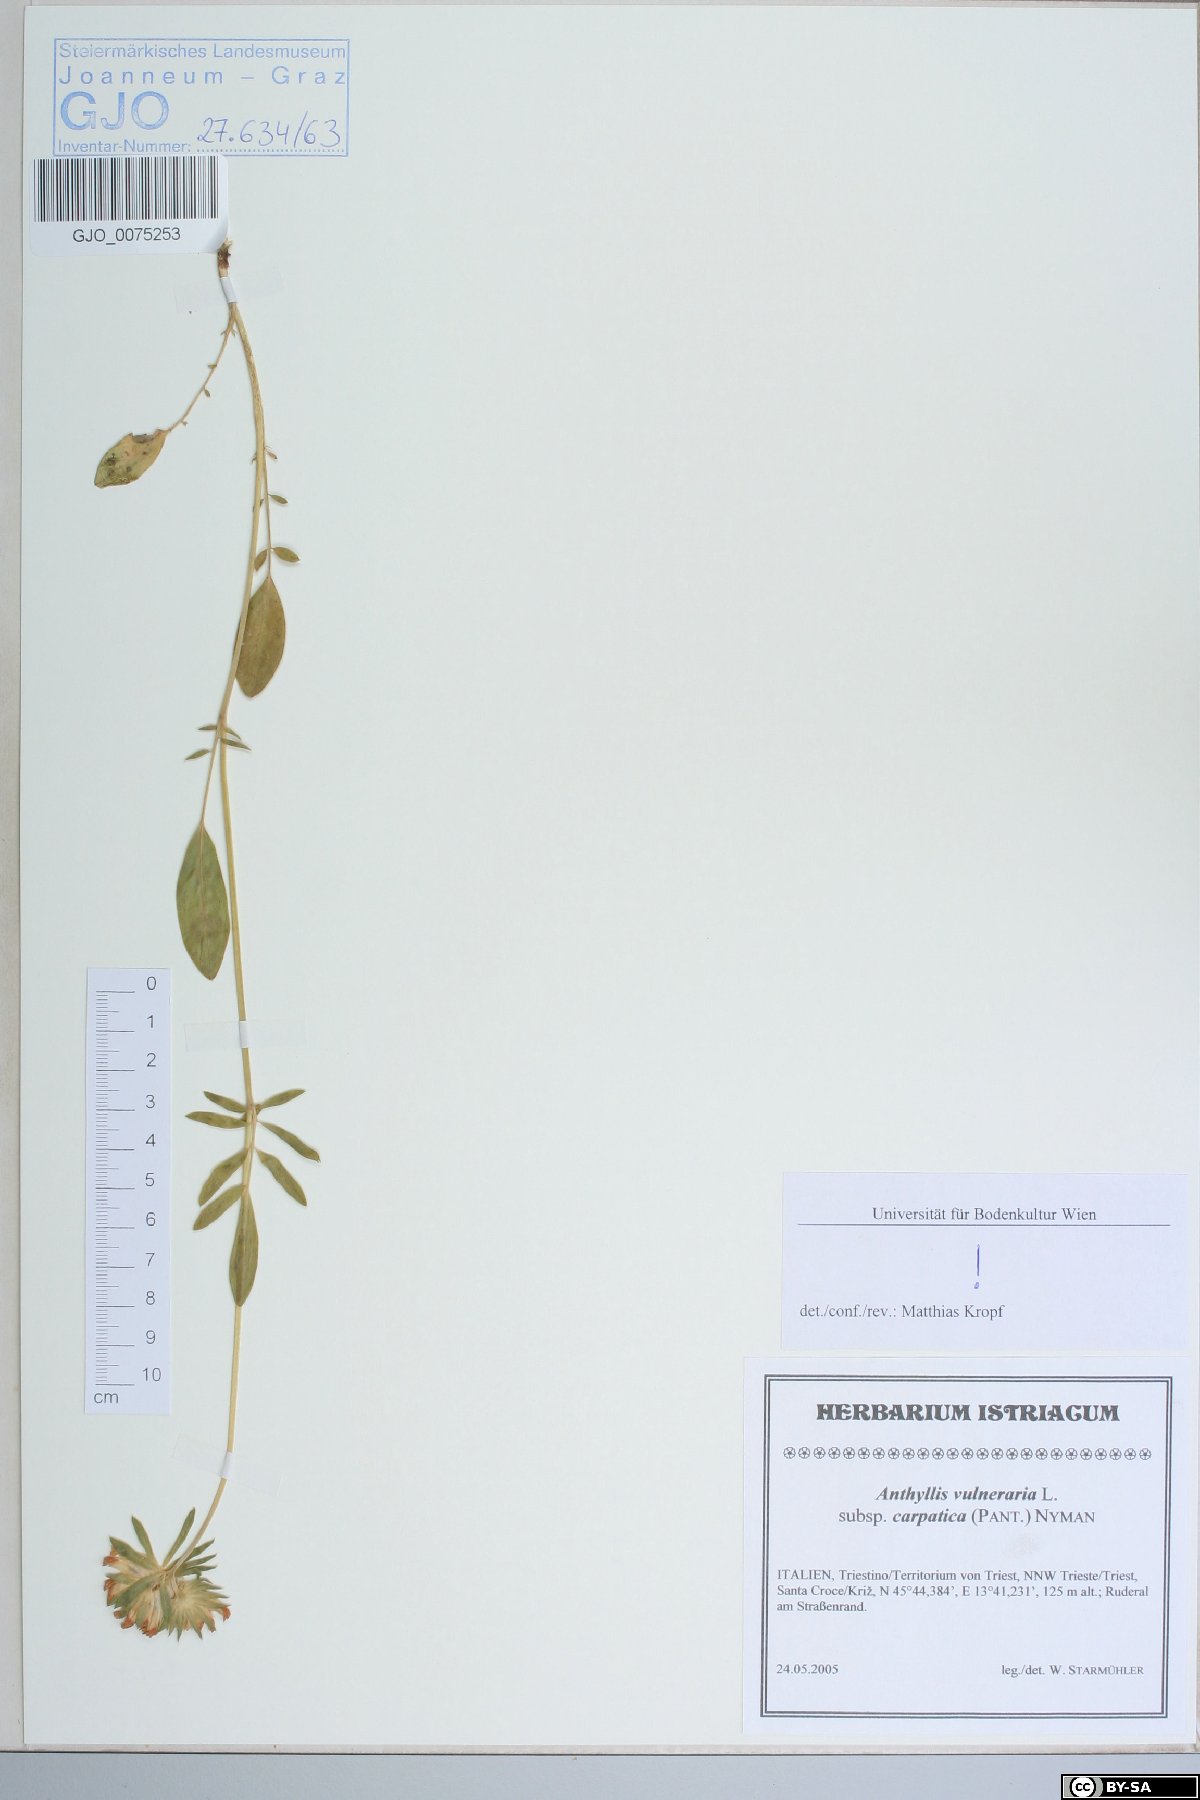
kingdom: Plantae
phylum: Tracheophyta
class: Magnoliopsida
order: Fabales
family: Fabaceae
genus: Anthyllis
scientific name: Anthyllis vulneraria
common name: Kidney vetch
